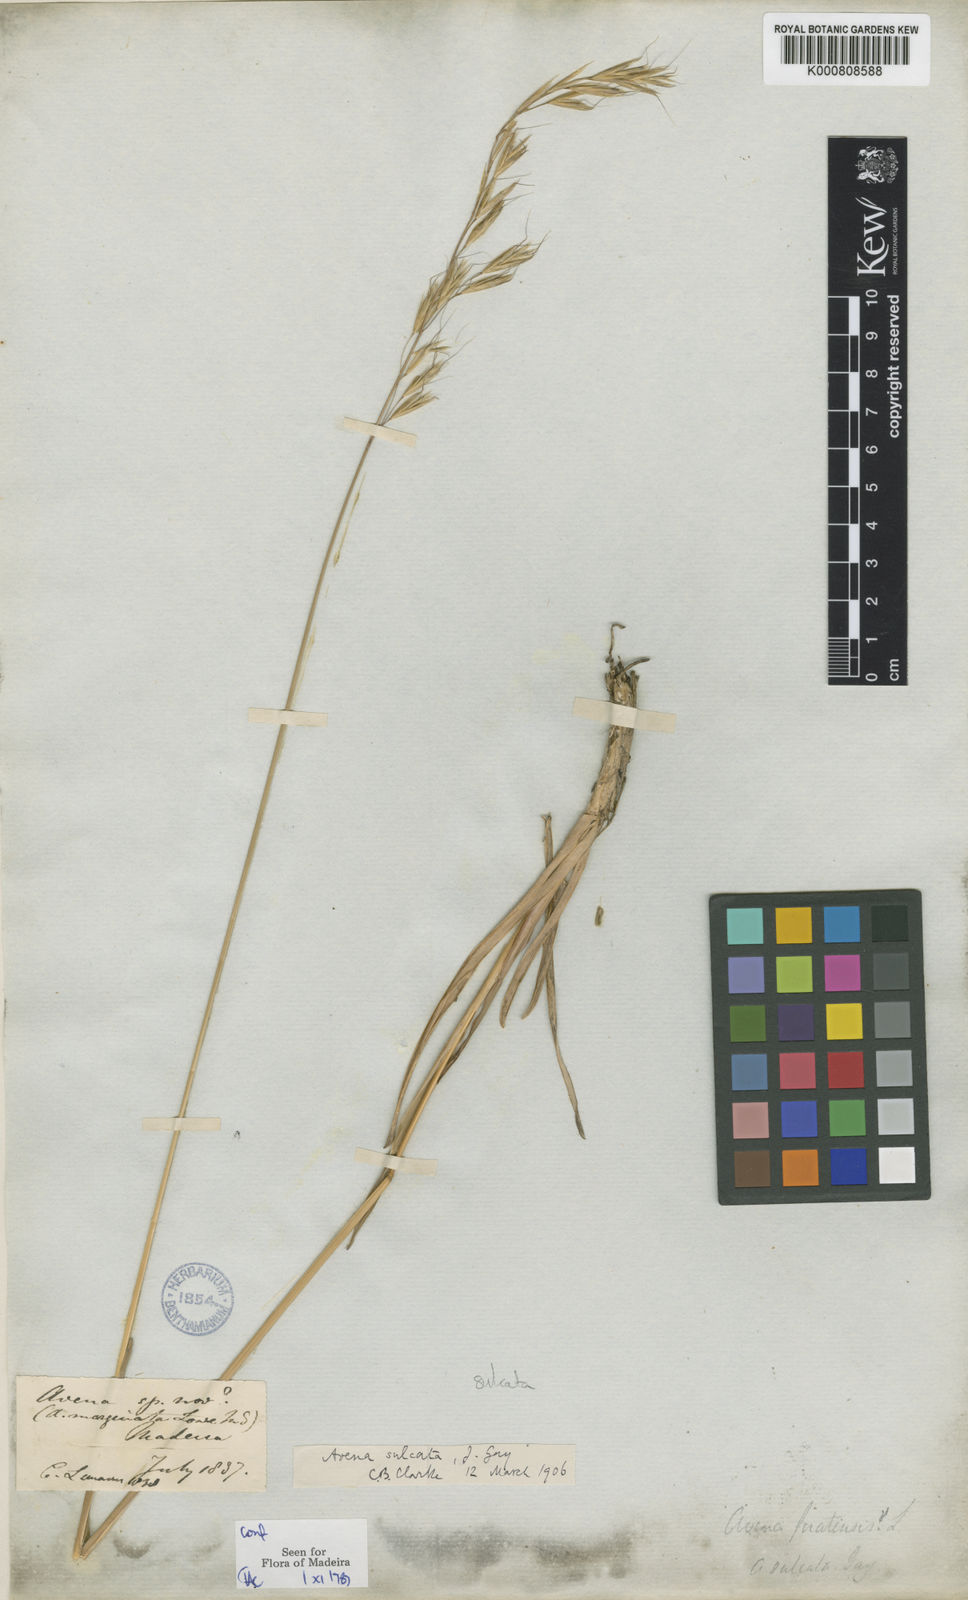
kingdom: Plantae
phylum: Tracheophyta
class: Liliopsida
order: Poales
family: Poaceae
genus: Helictotrichon
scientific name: Helictotrichon
